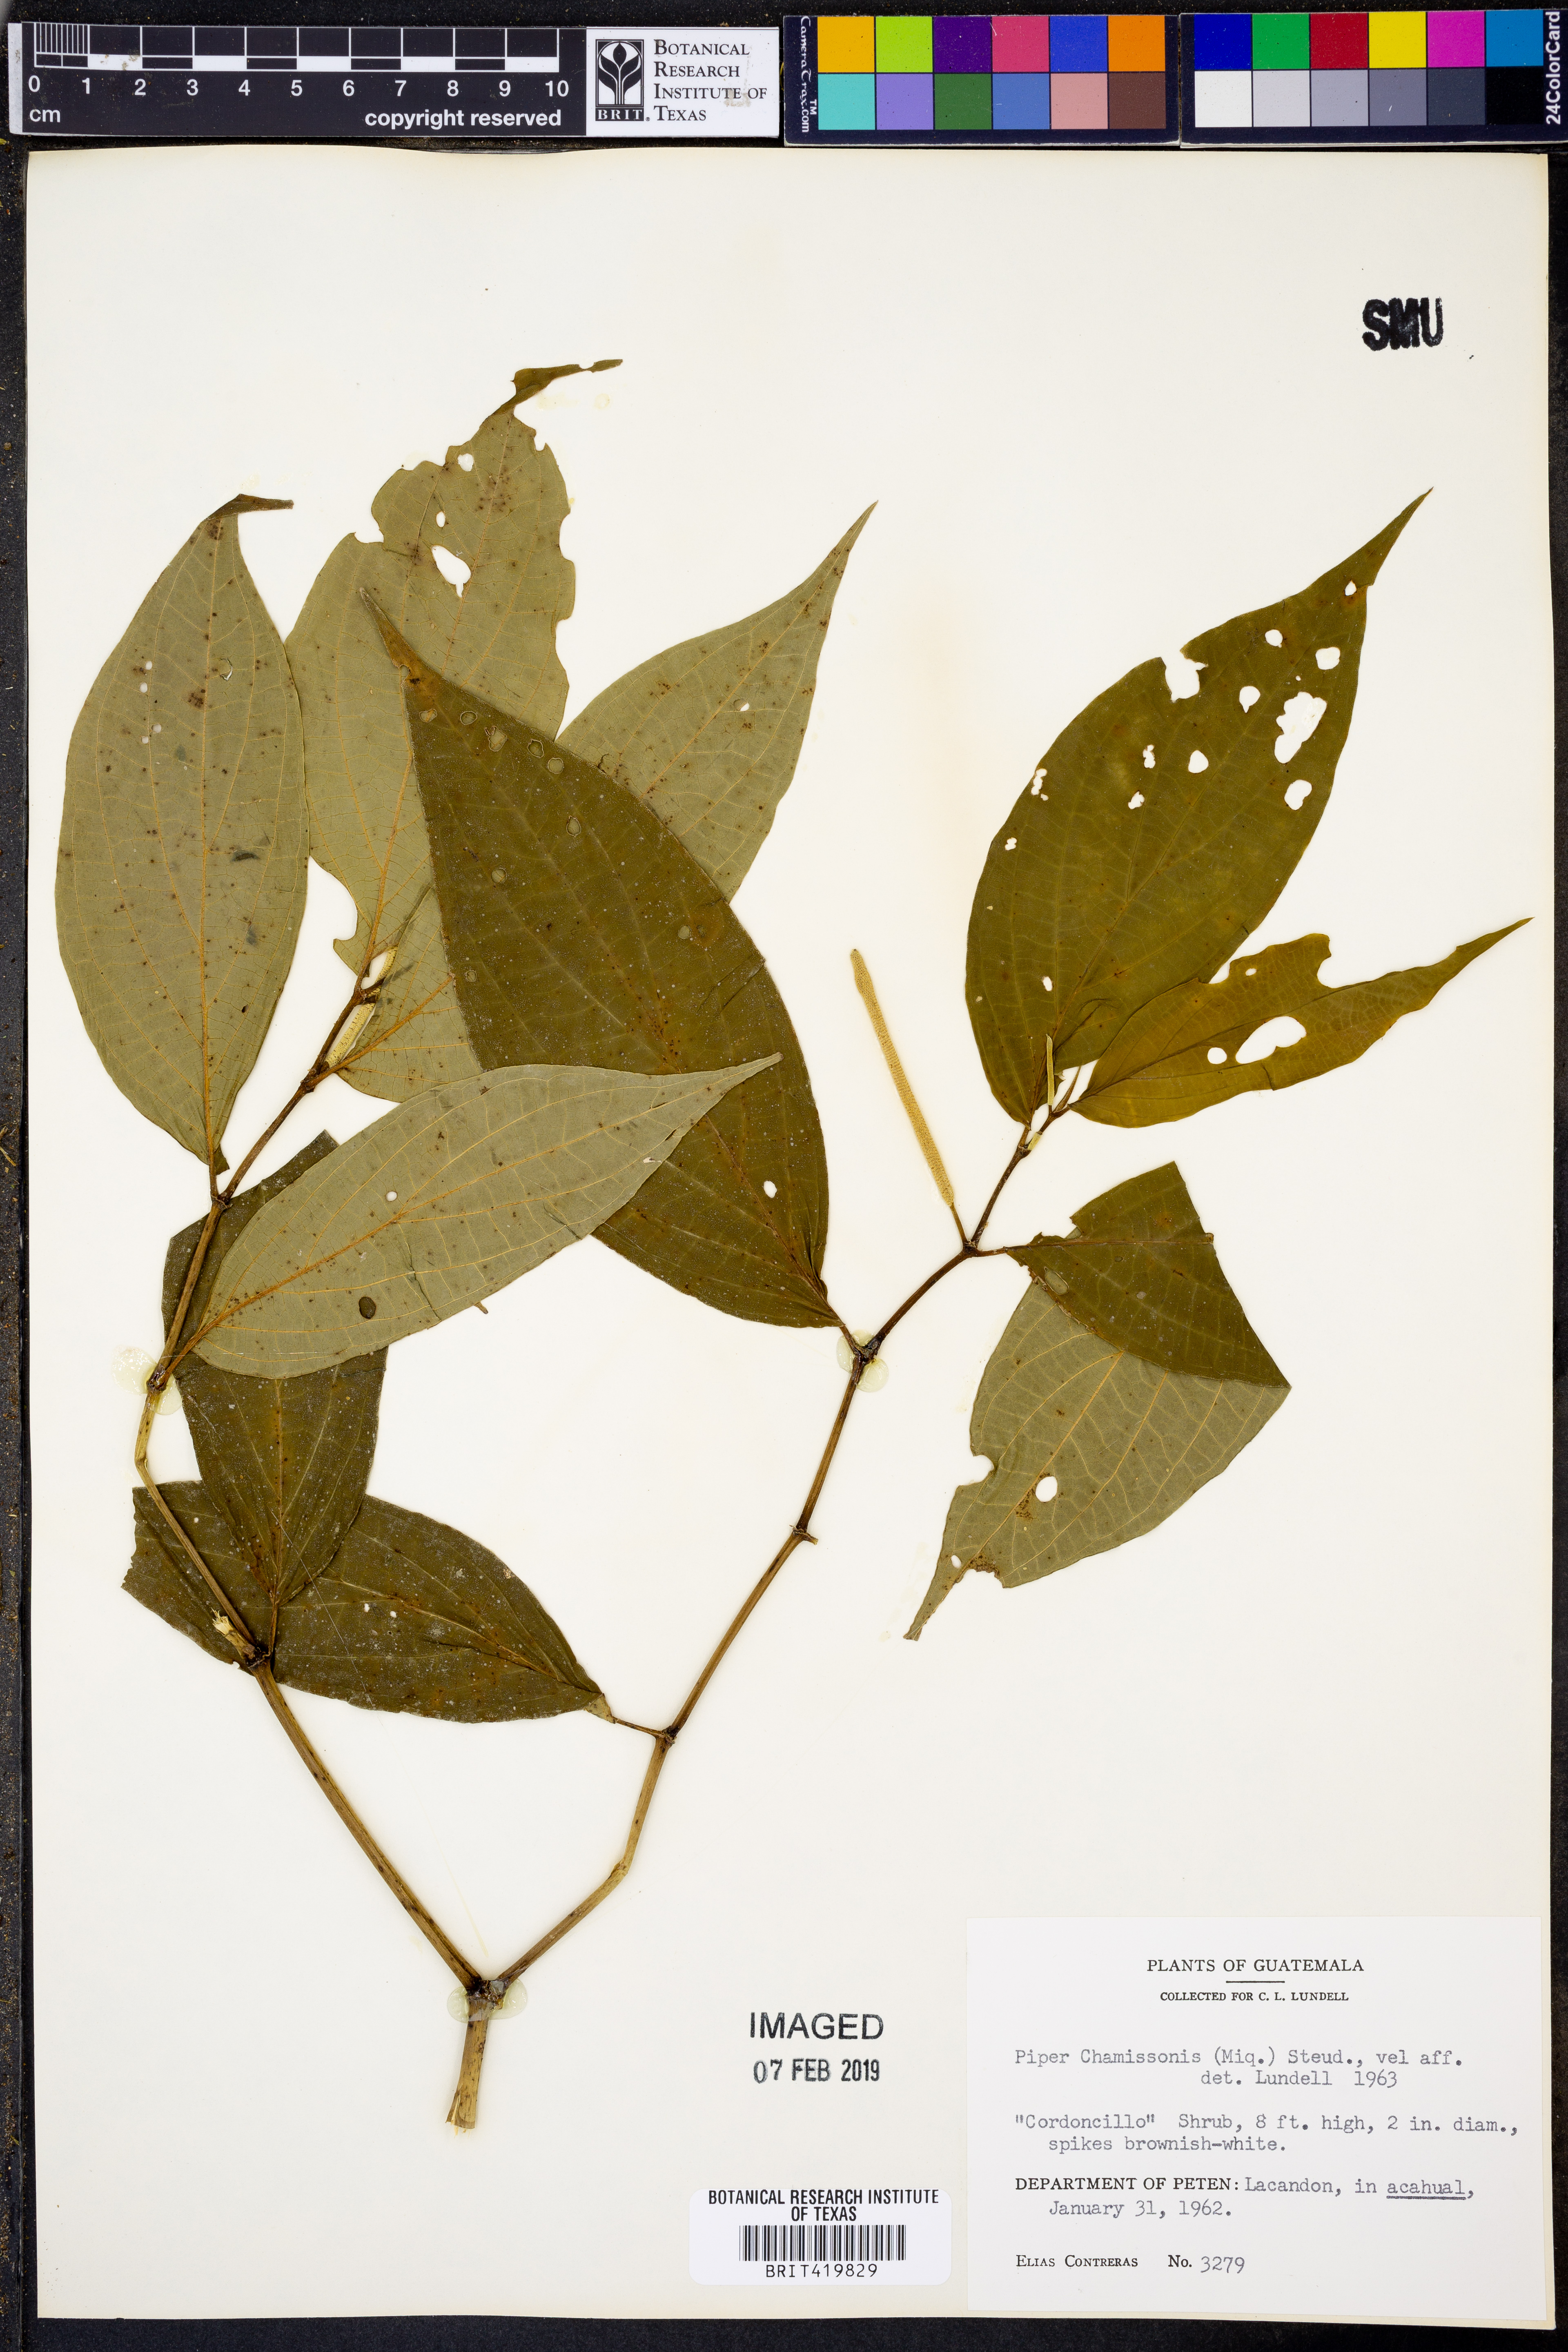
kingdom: Plantae
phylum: Tracheophyta
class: Magnoliopsida
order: Piperales
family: Piperaceae
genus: Piper
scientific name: Piper chamissonis
